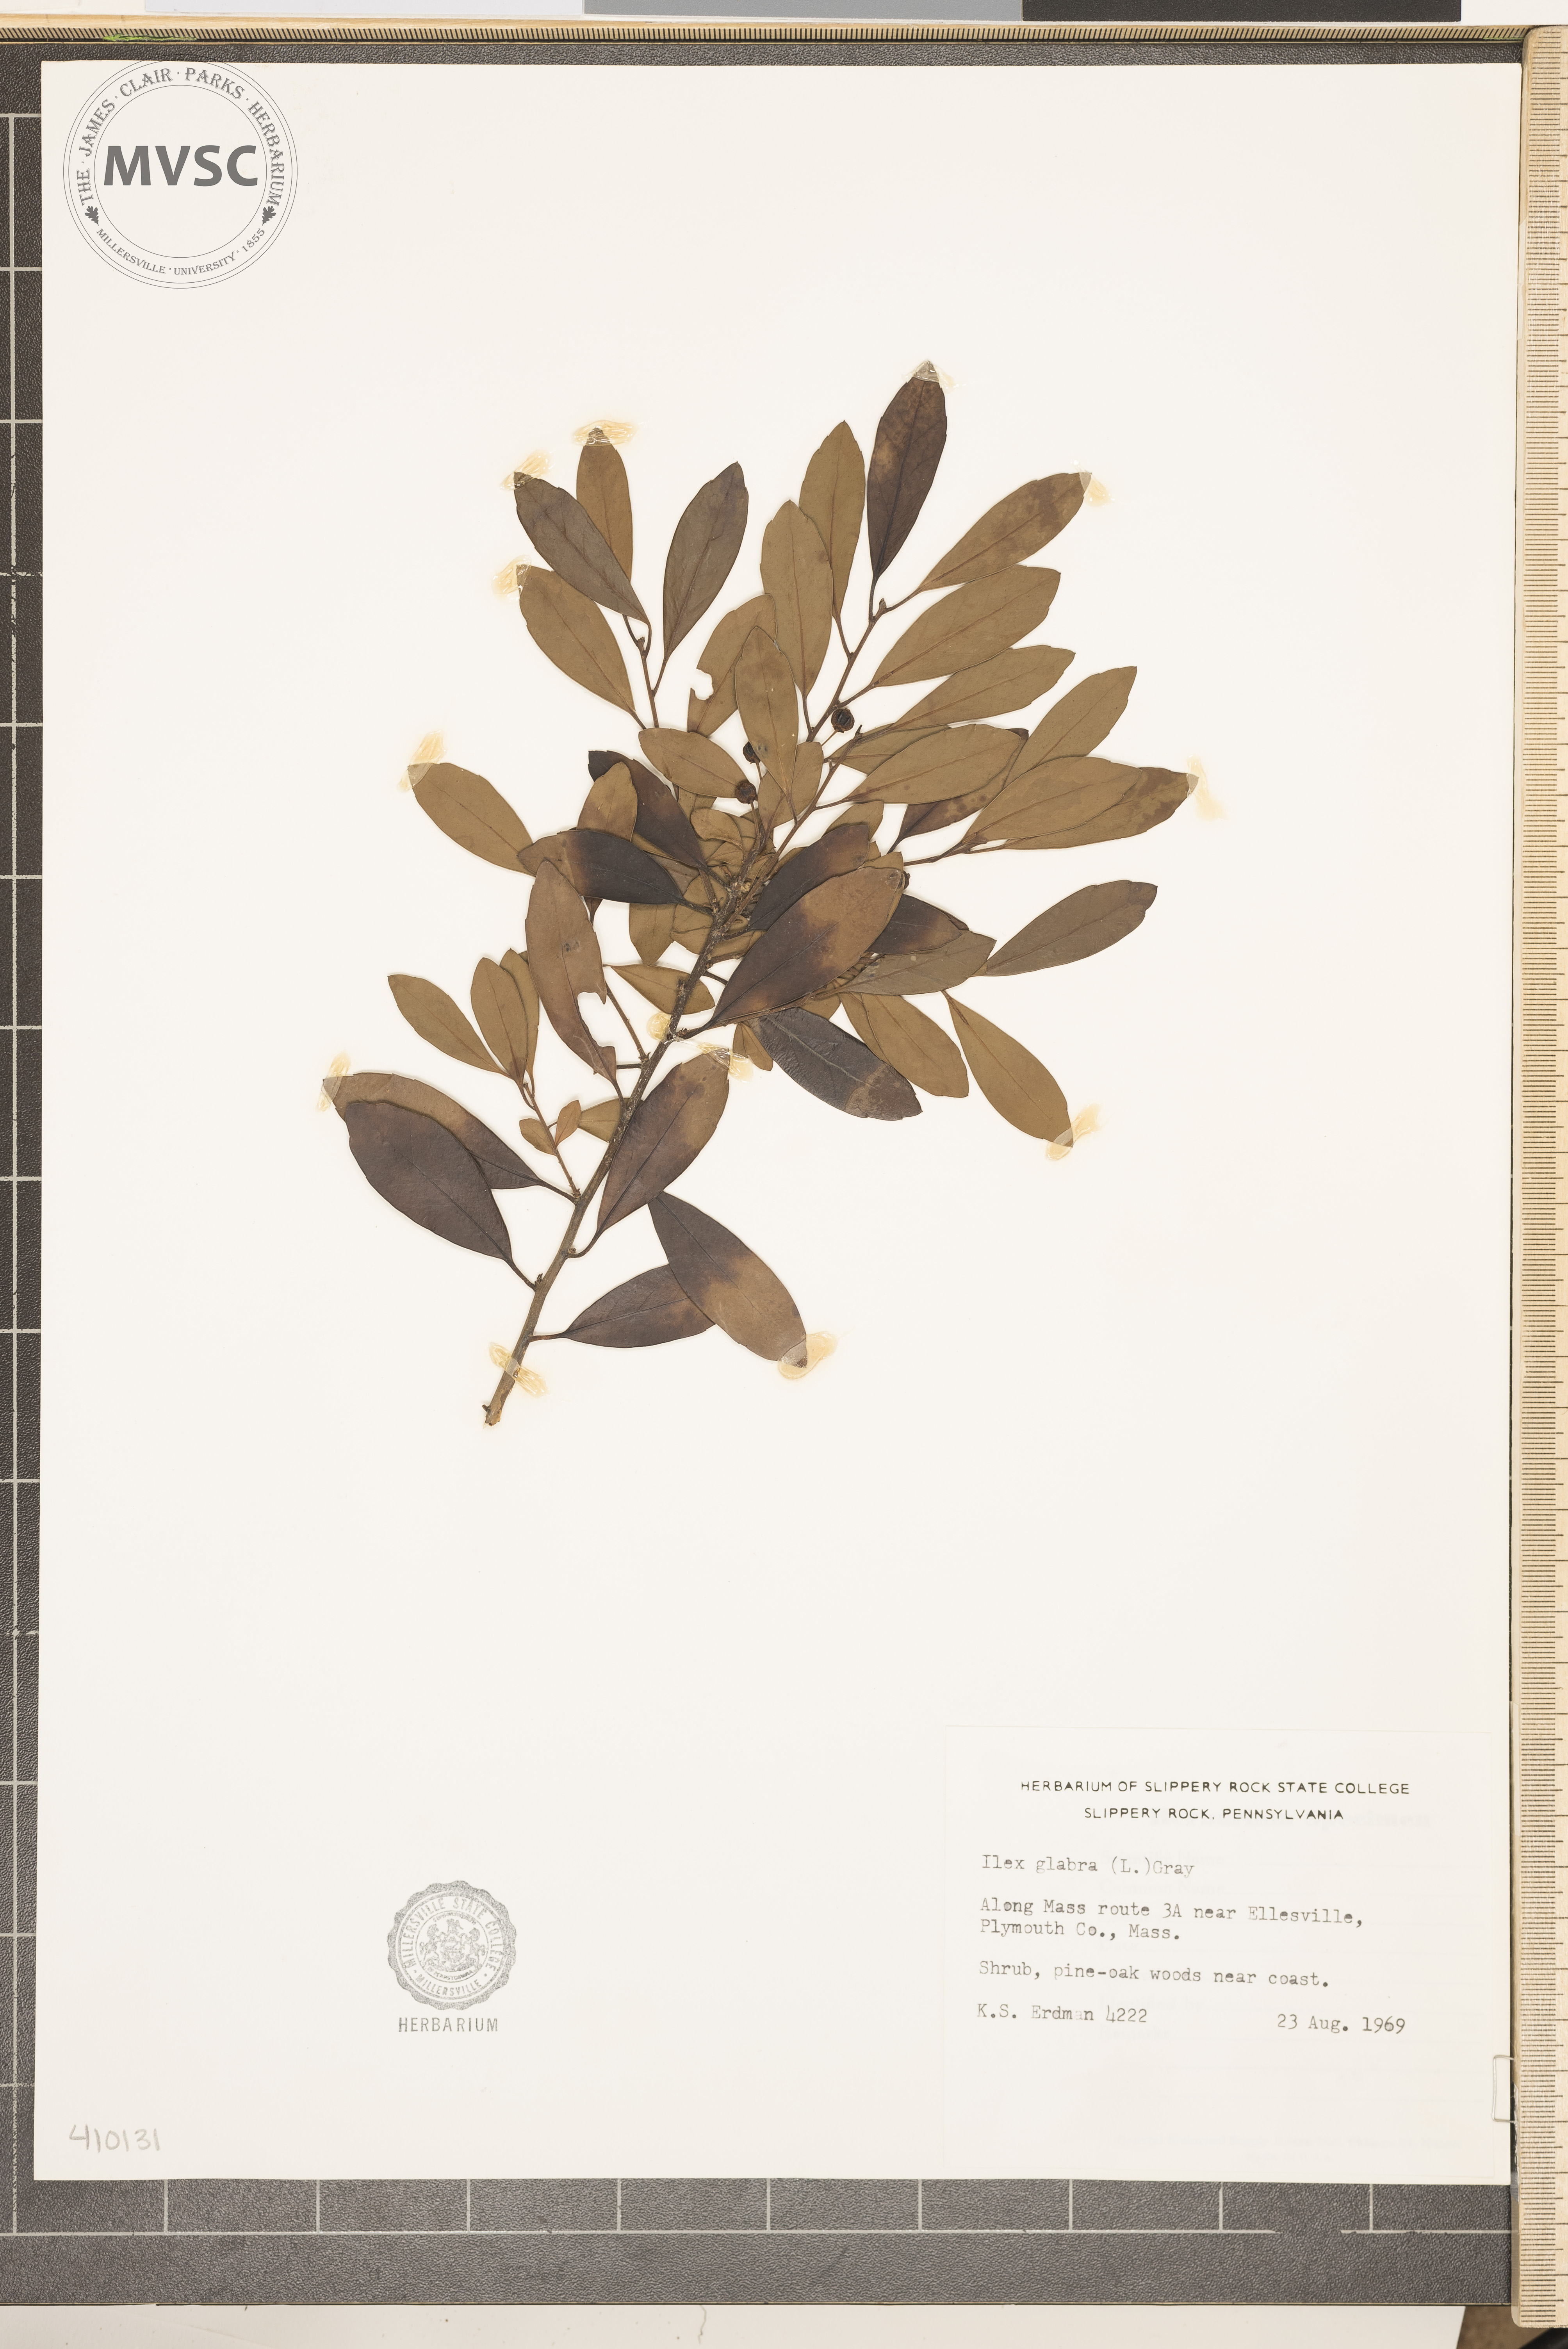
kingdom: Plantae
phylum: Tracheophyta
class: Magnoliopsida
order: Aquifoliales
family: Aquifoliaceae
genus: Ilex
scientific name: Ilex glabra
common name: Bitter gallberry
